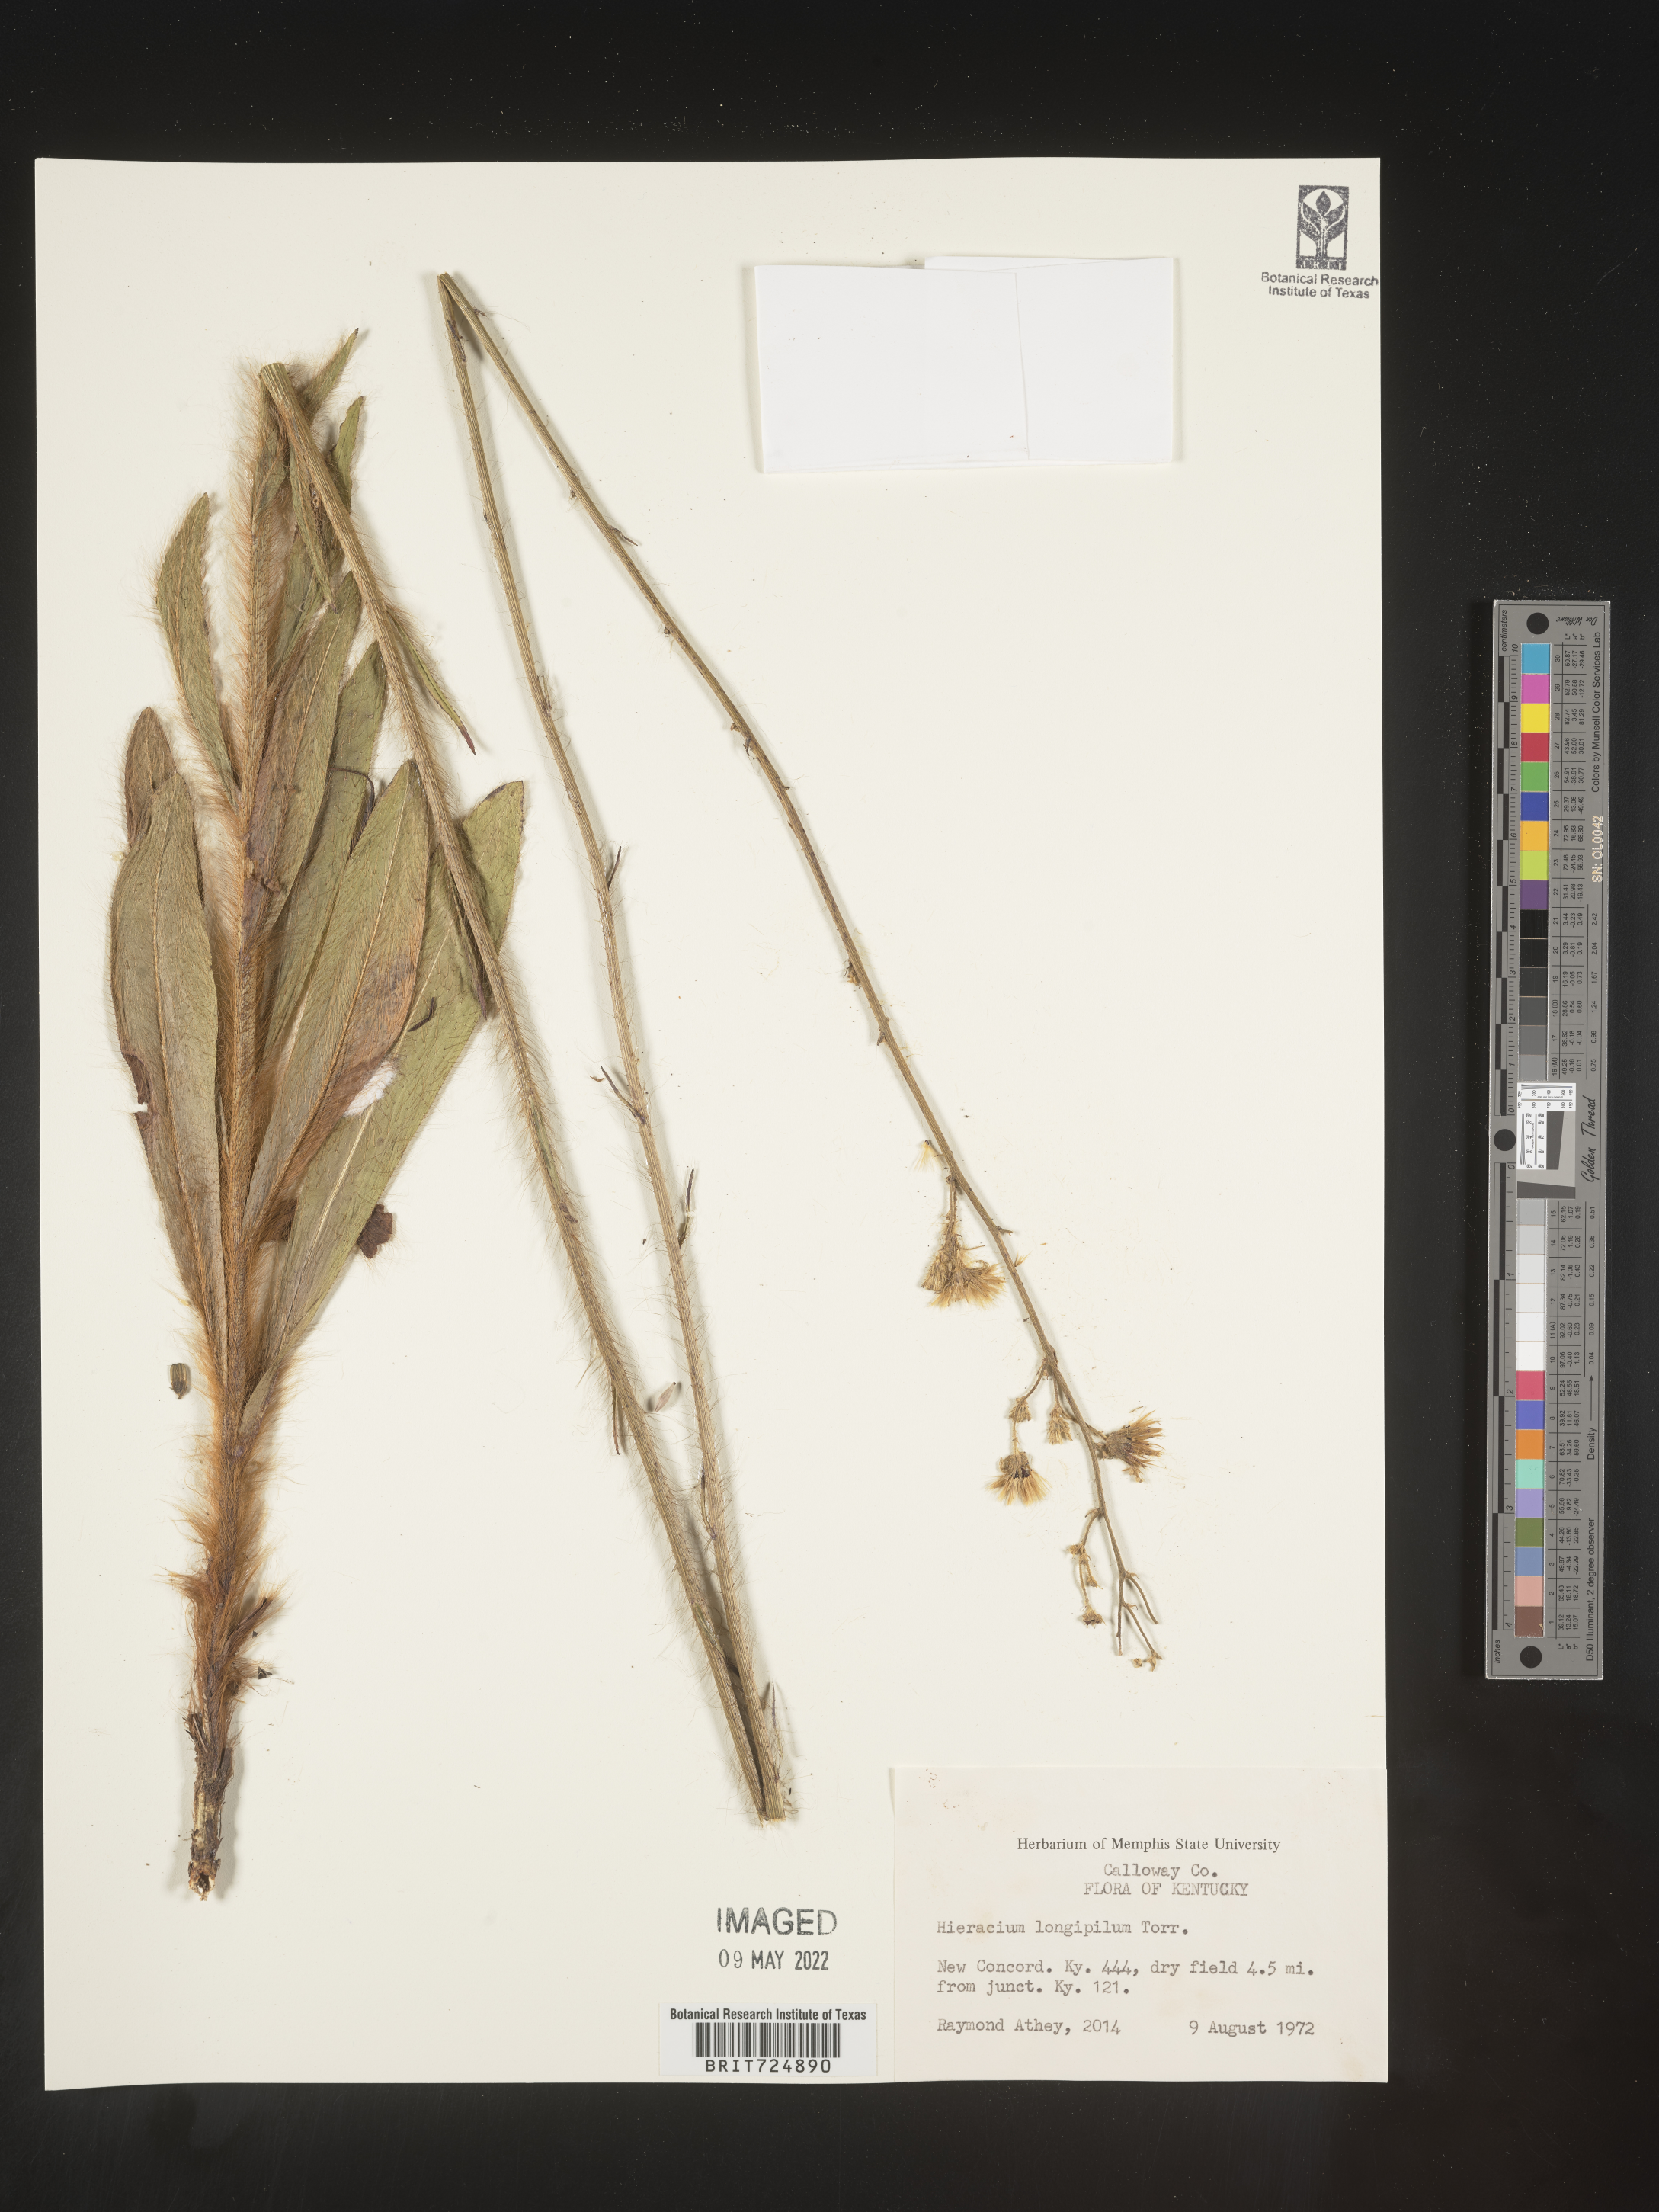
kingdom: Plantae
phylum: Tracheophyta
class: Magnoliopsida
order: Asterales
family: Asteraceae
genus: Hieracium
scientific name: Hieracium longipilum
